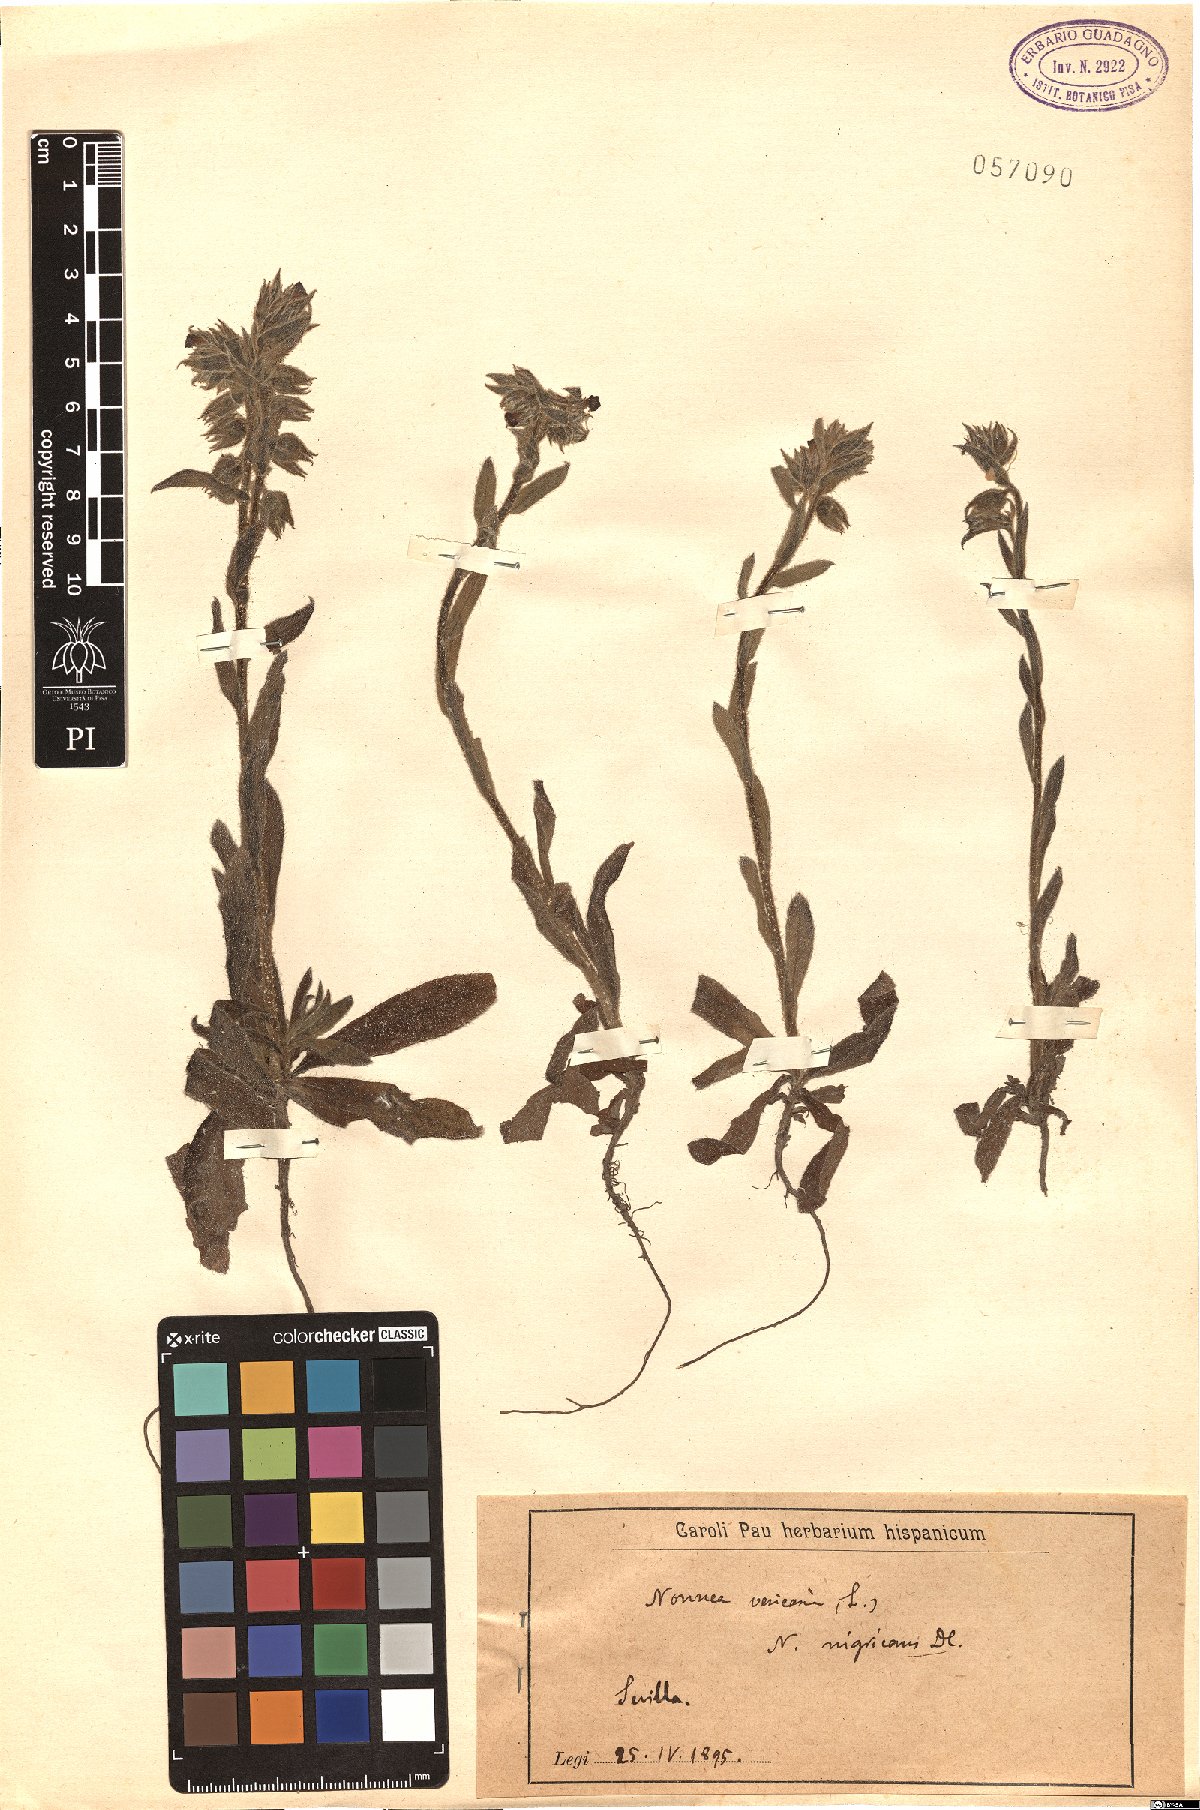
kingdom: Plantae
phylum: Tracheophyta
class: Magnoliopsida
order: Boraginales
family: Boraginaceae
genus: Nonea
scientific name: Nonea vesicaria
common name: Red monkswort
